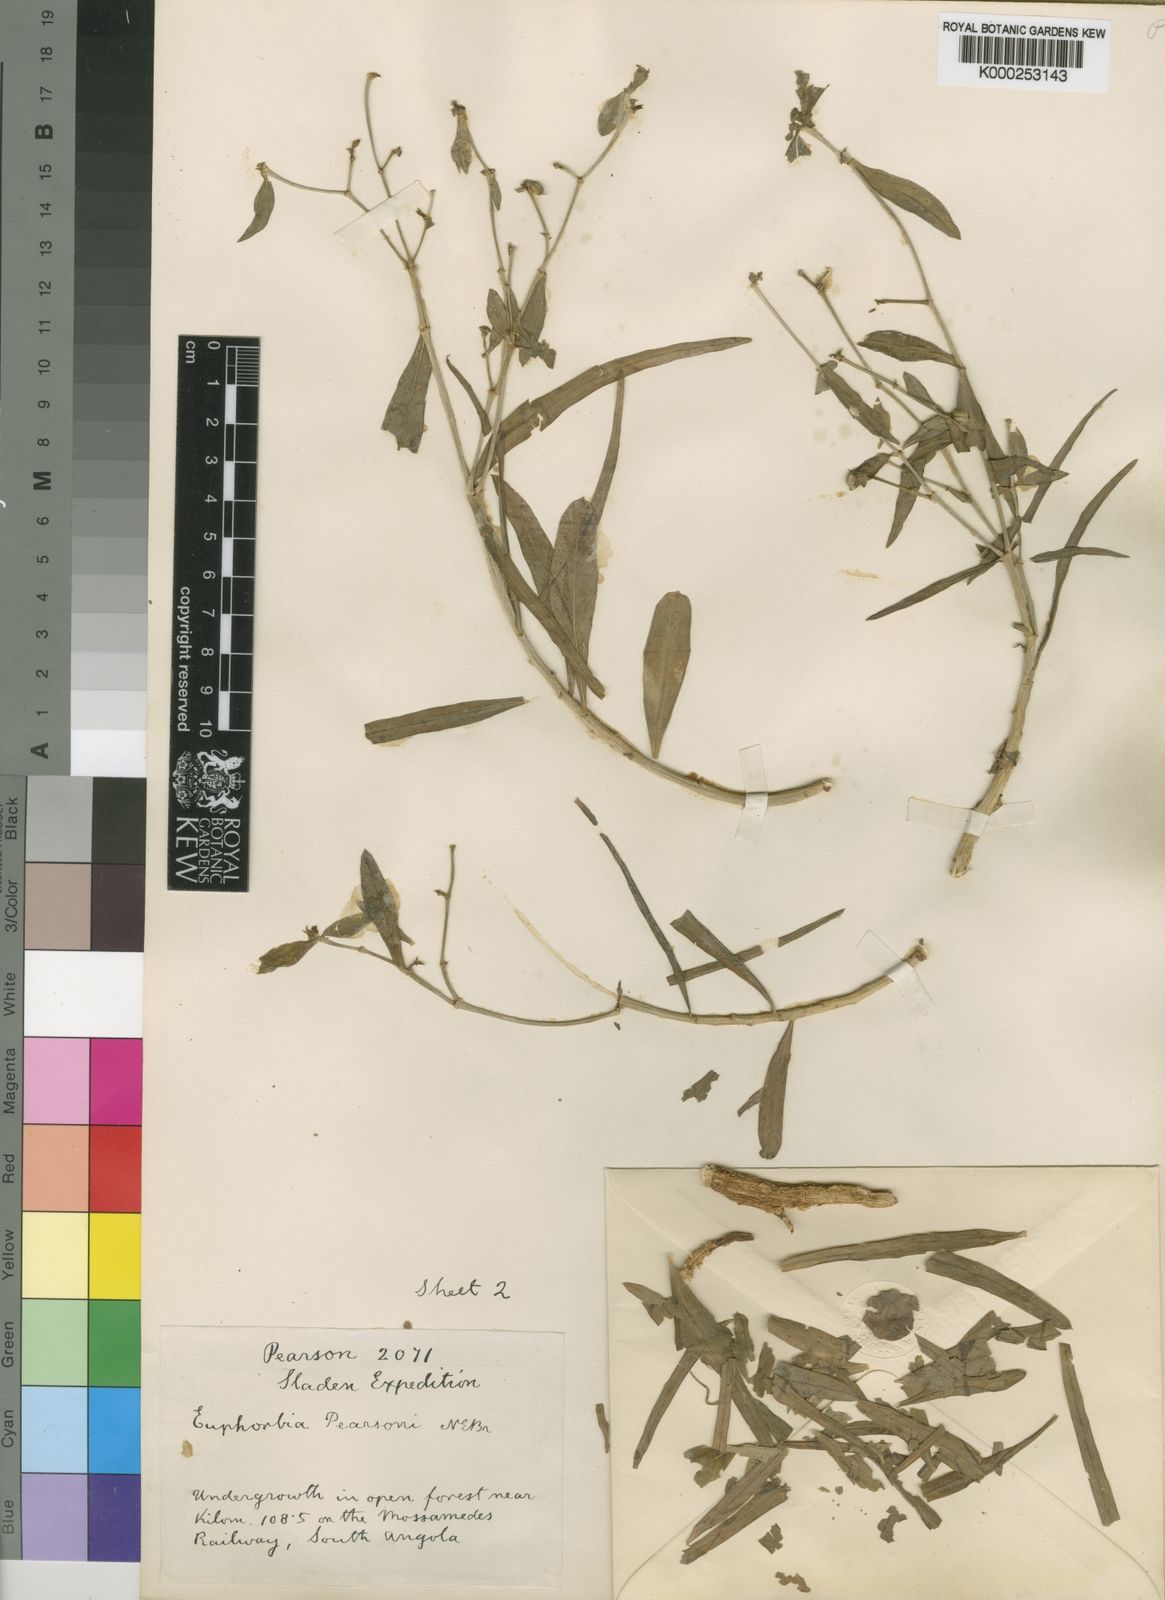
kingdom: Plantae
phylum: Tracheophyta
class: Magnoliopsida
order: Malpighiales
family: Euphorbiaceae
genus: Euphorbia
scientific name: Euphorbia agowensis
